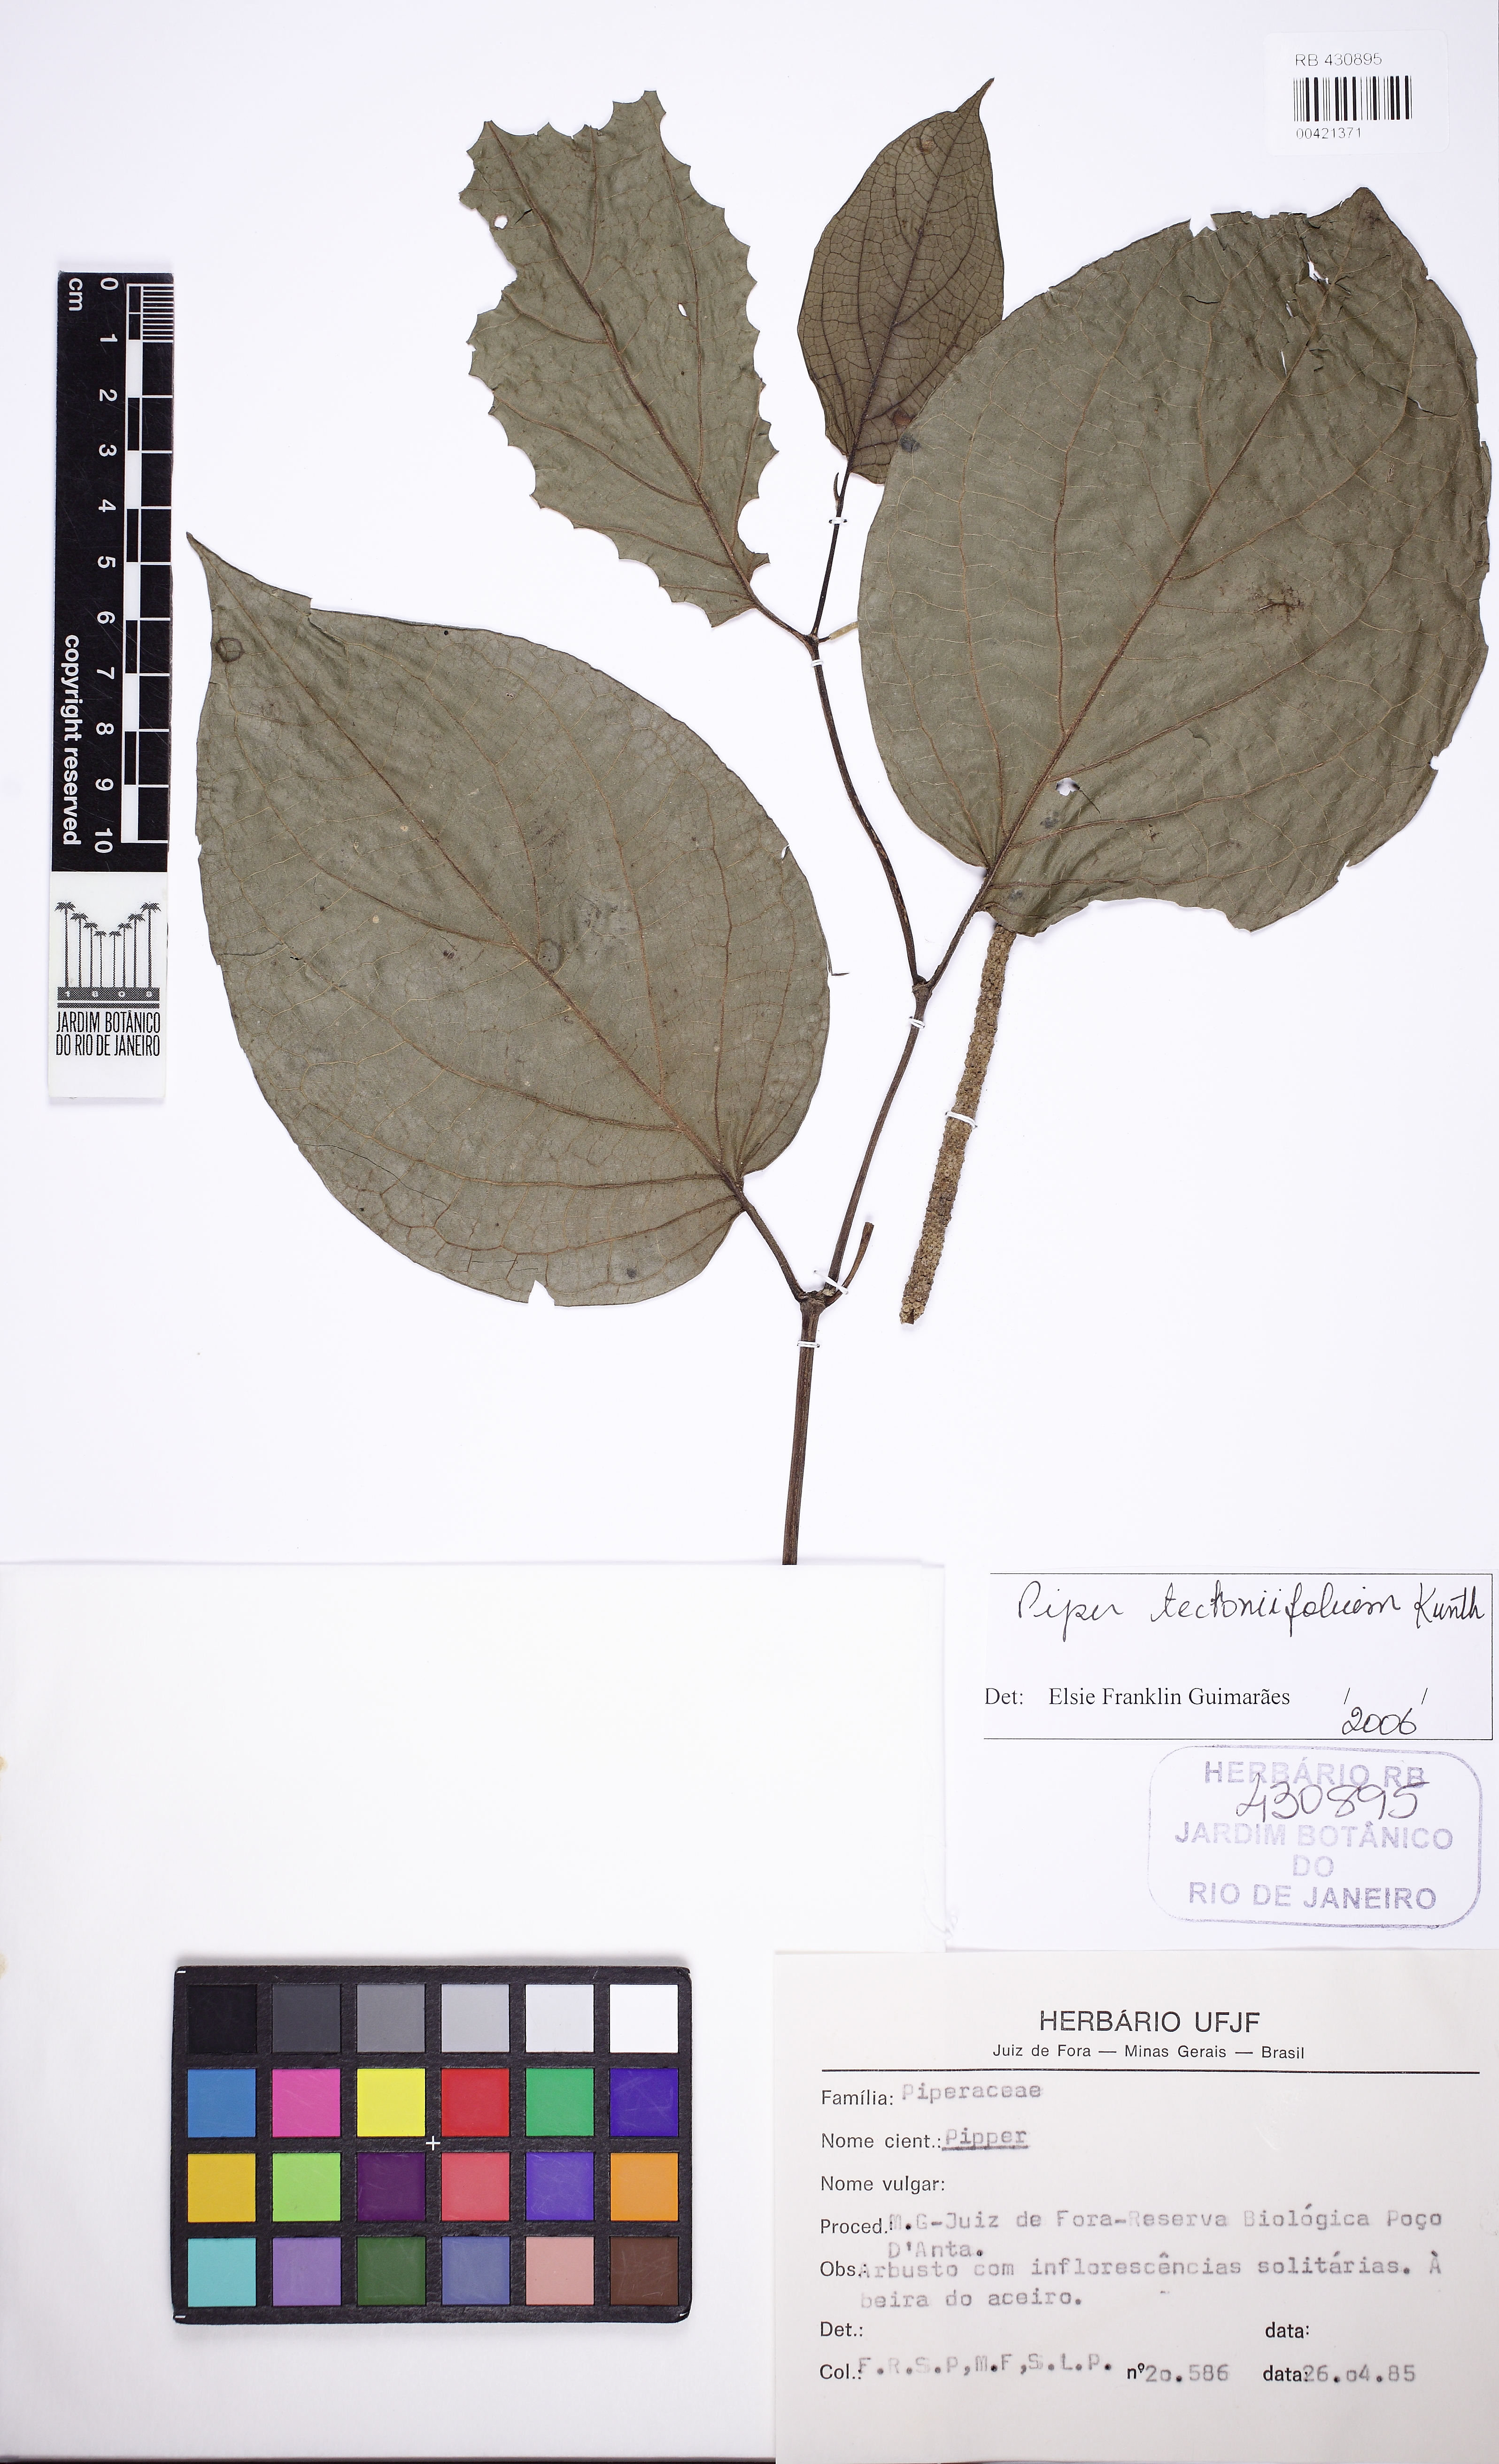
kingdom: Plantae
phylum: Tracheophyta
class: Magnoliopsida
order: Piperales
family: Piperaceae
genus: Piper
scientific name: Piper tectoniifolium
